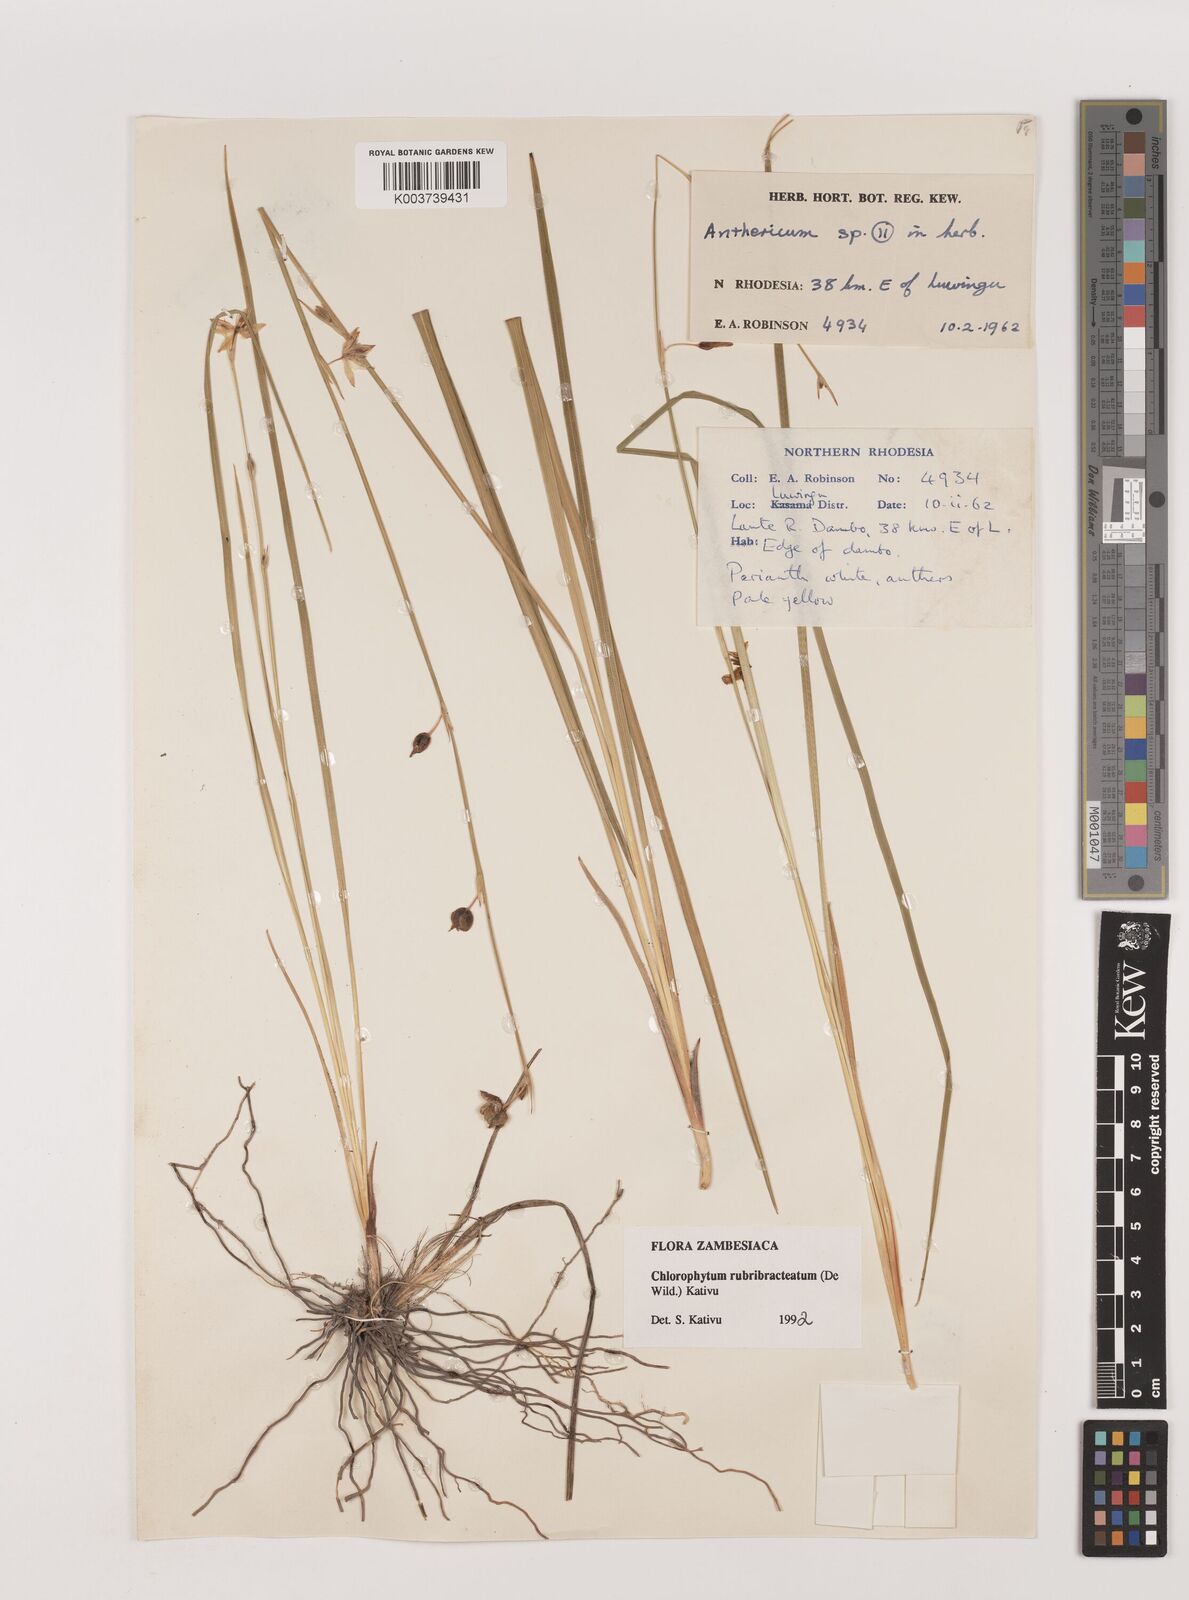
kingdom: Plantae
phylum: Tracheophyta
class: Liliopsida
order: Asparagales
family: Asparagaceae
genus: Chlorophytum
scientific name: Chlorophytum rubribracteatum
